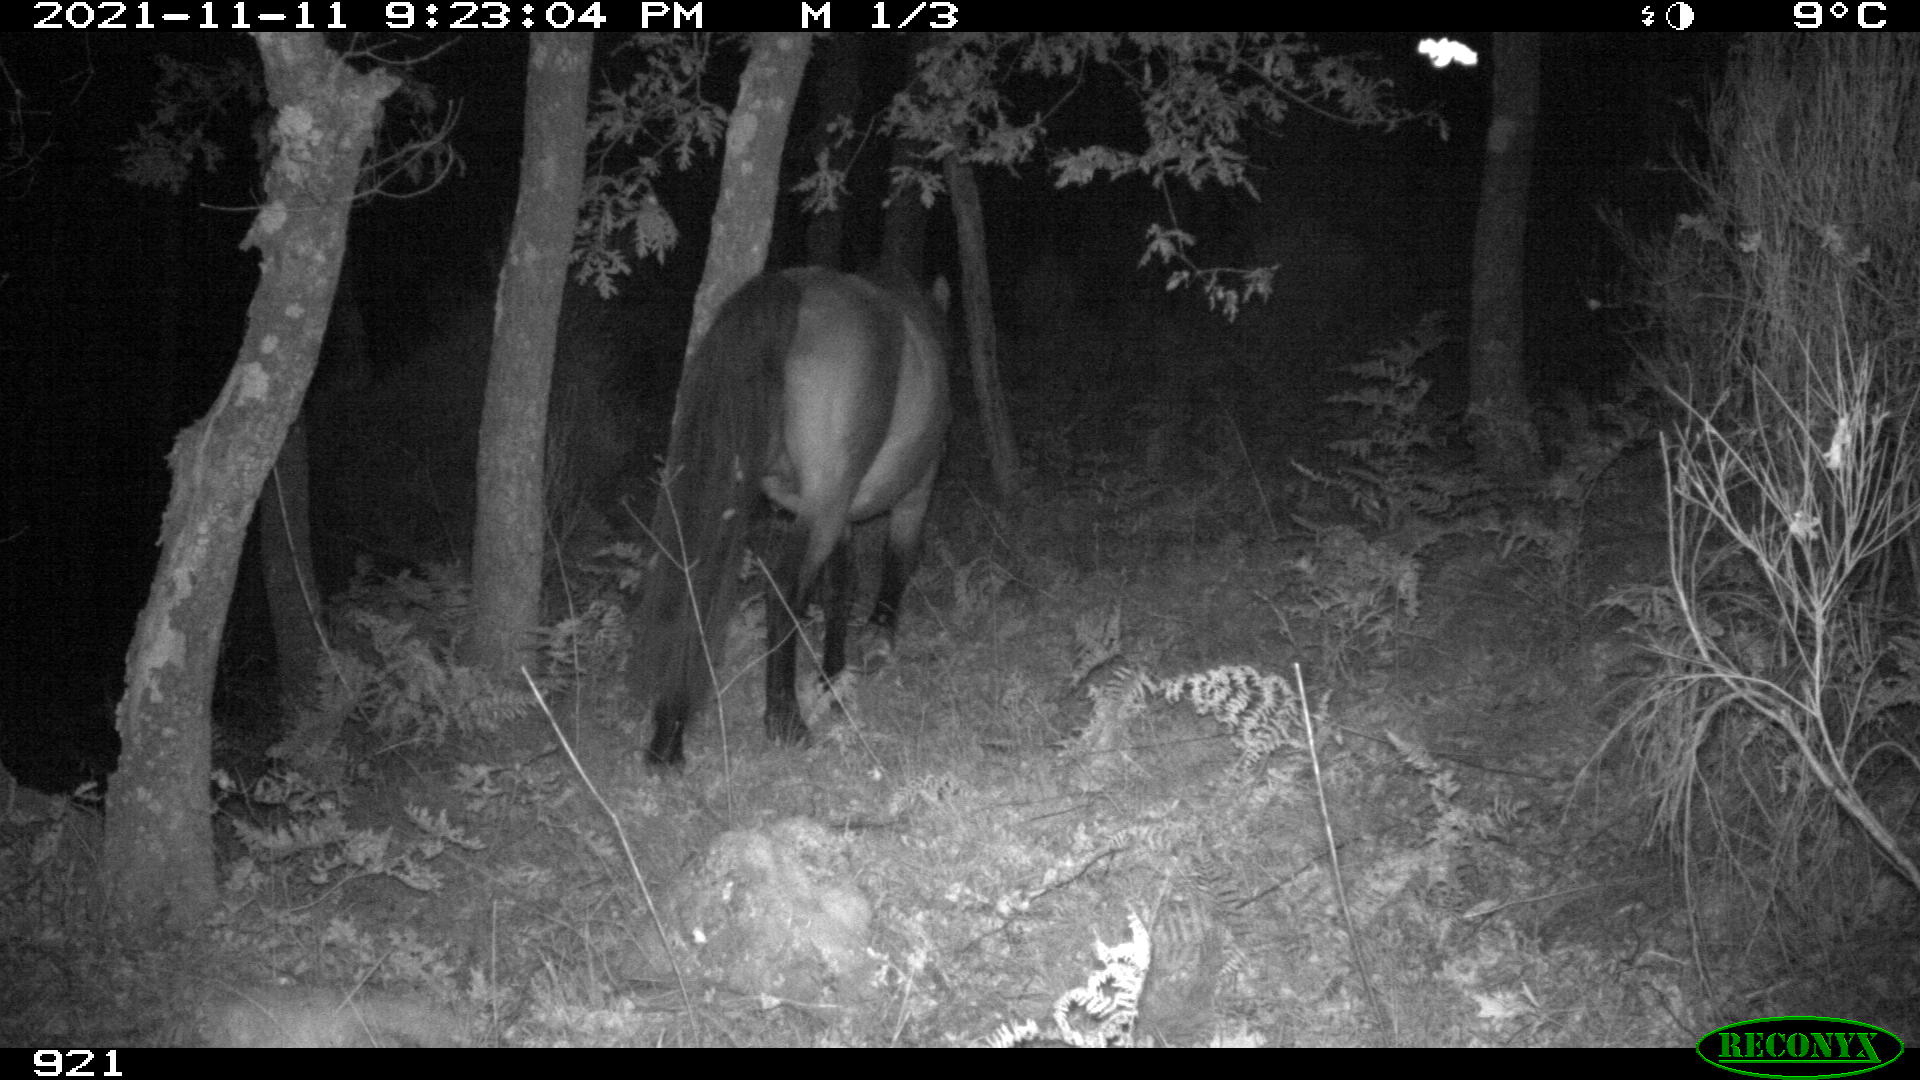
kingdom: Animalia
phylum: Chordata
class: Mammalia
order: Perissodactyla
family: Equidae
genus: Equus
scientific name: Equus caballus
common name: Horse
